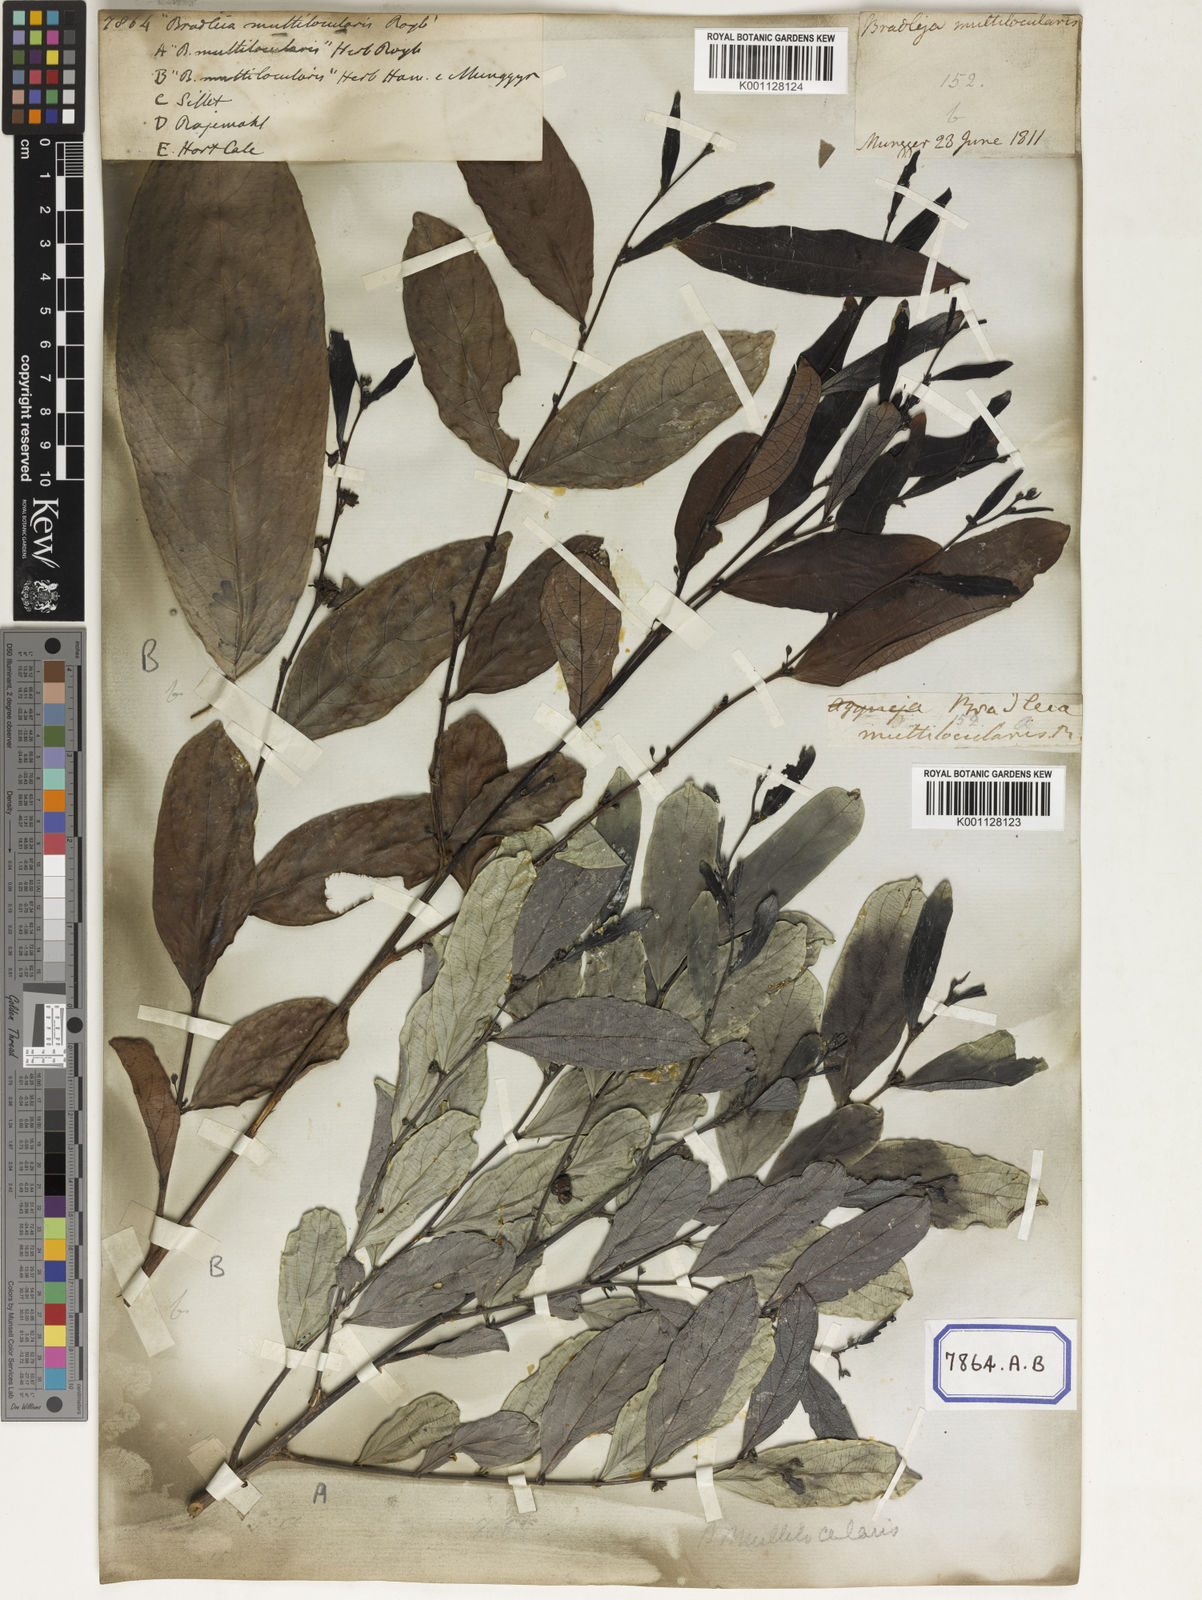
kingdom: Plantae
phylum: Tracheophyta
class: Magnoliopsida
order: Malpighiales
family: Euphorbiaceae
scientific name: Euphorbiaceae
